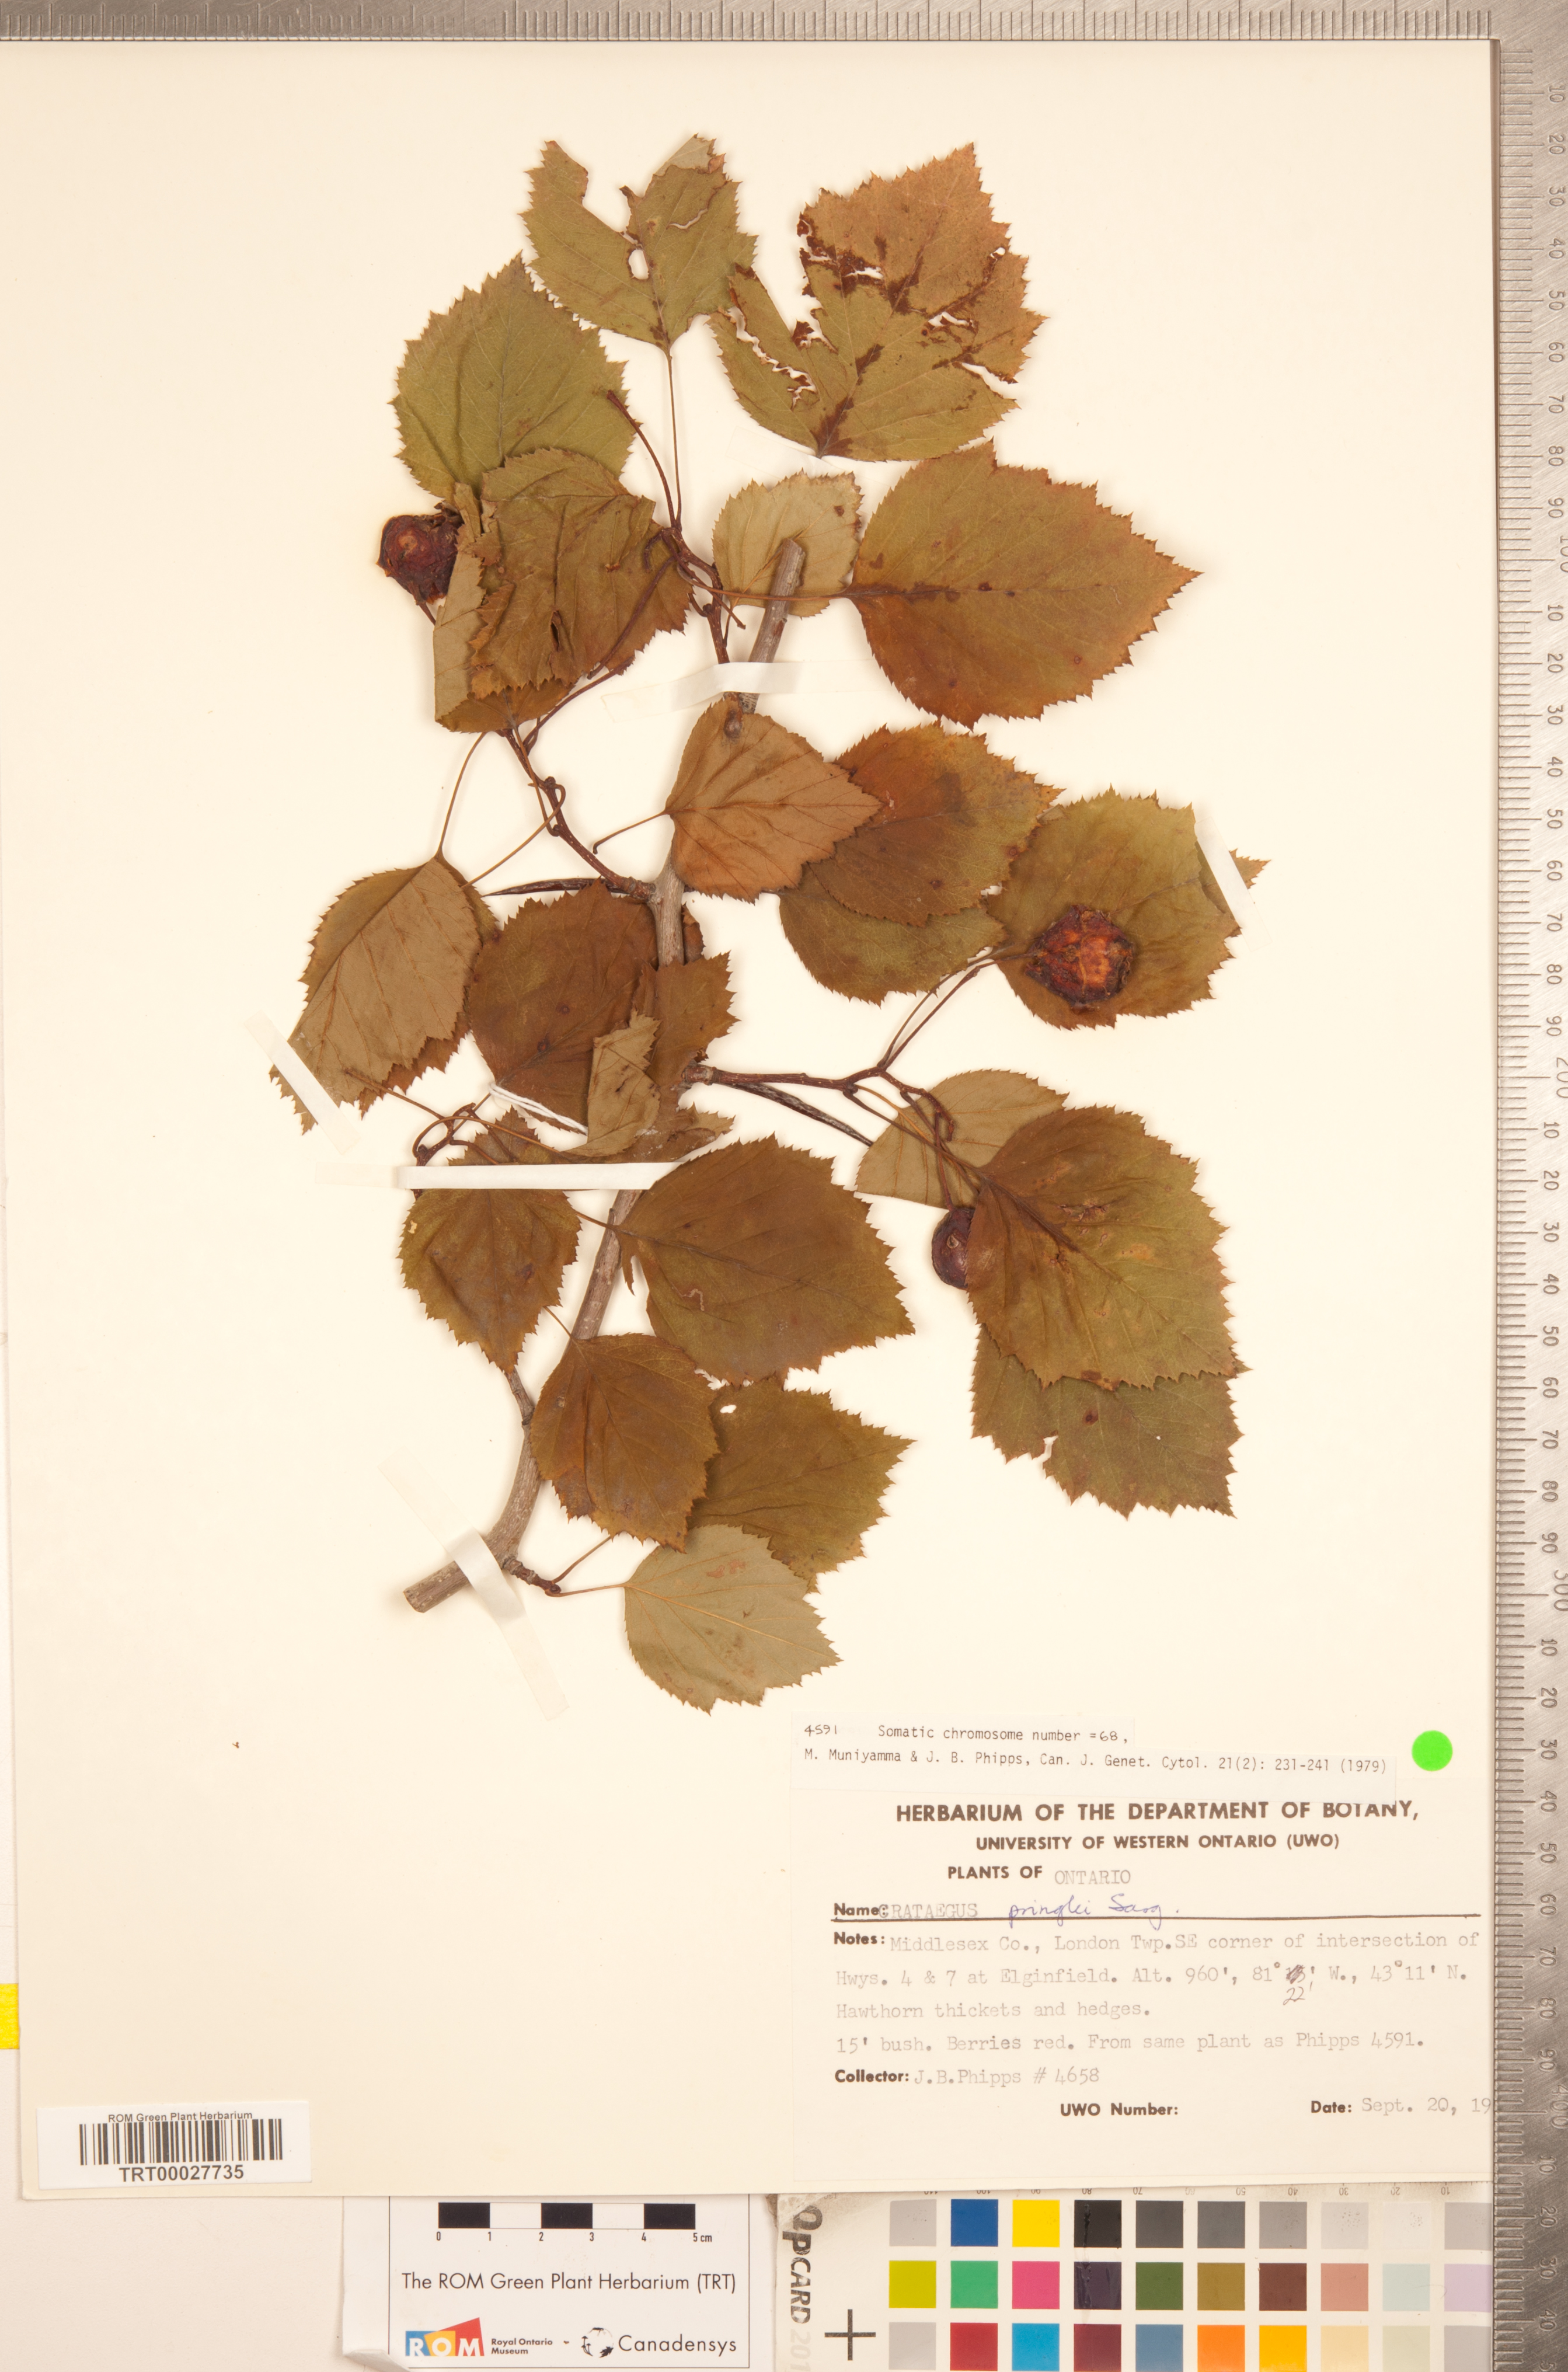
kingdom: Plantae
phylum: Tracheophyta
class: Magnoliopsida
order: Rosales
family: Rosaceae
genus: Crataegus
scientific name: Crataegus coccinea
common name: Scarlet hawthorn
